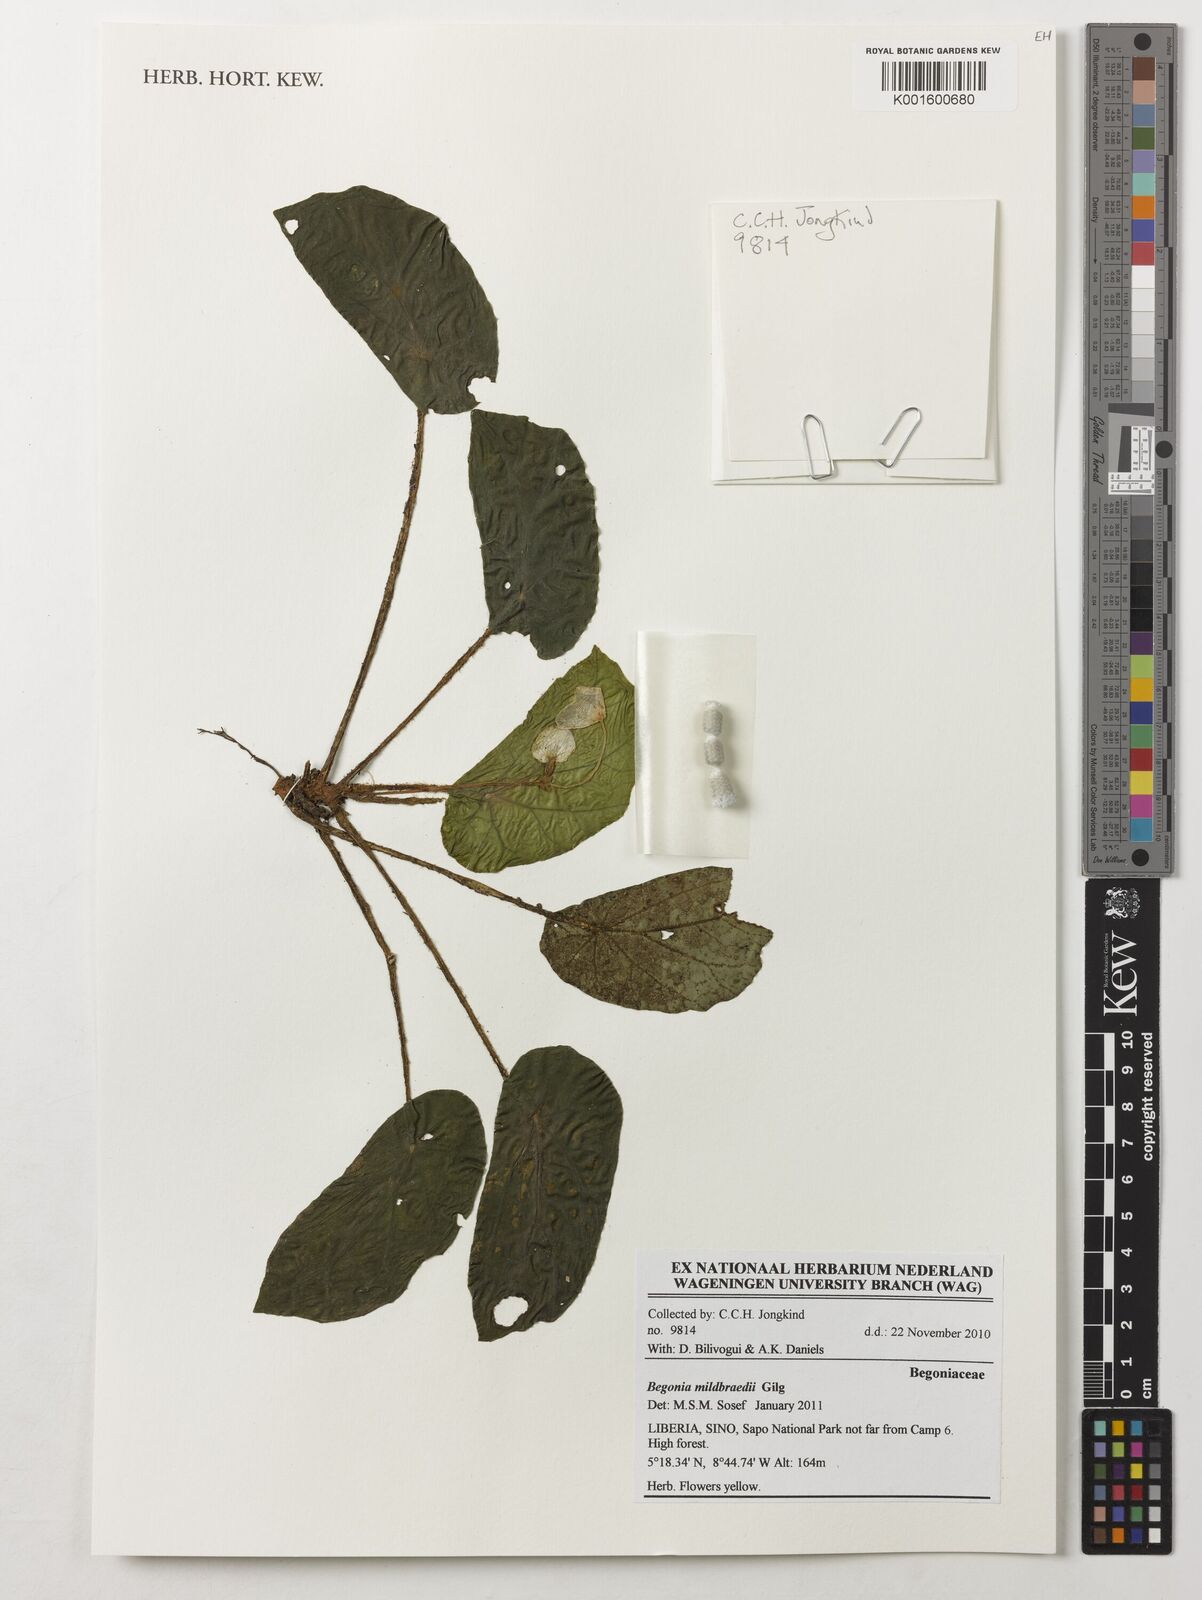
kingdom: Plantae
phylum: Tracheophyta
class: Magnoliopsida
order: Cucurbitales
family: Begoniaceae
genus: Begonia
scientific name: Begonia mildbraedii
